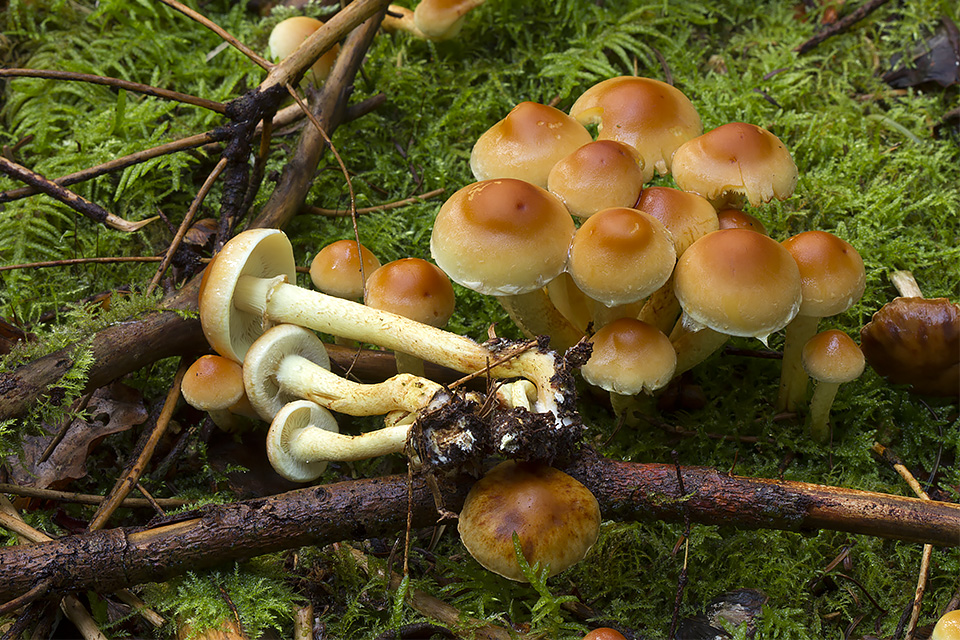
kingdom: Fungi
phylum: Basidiomycota
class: Agaricomycetes
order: Agaricales
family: Strophariaceae
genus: Hypholoma
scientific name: Hypholoma fasciculare
